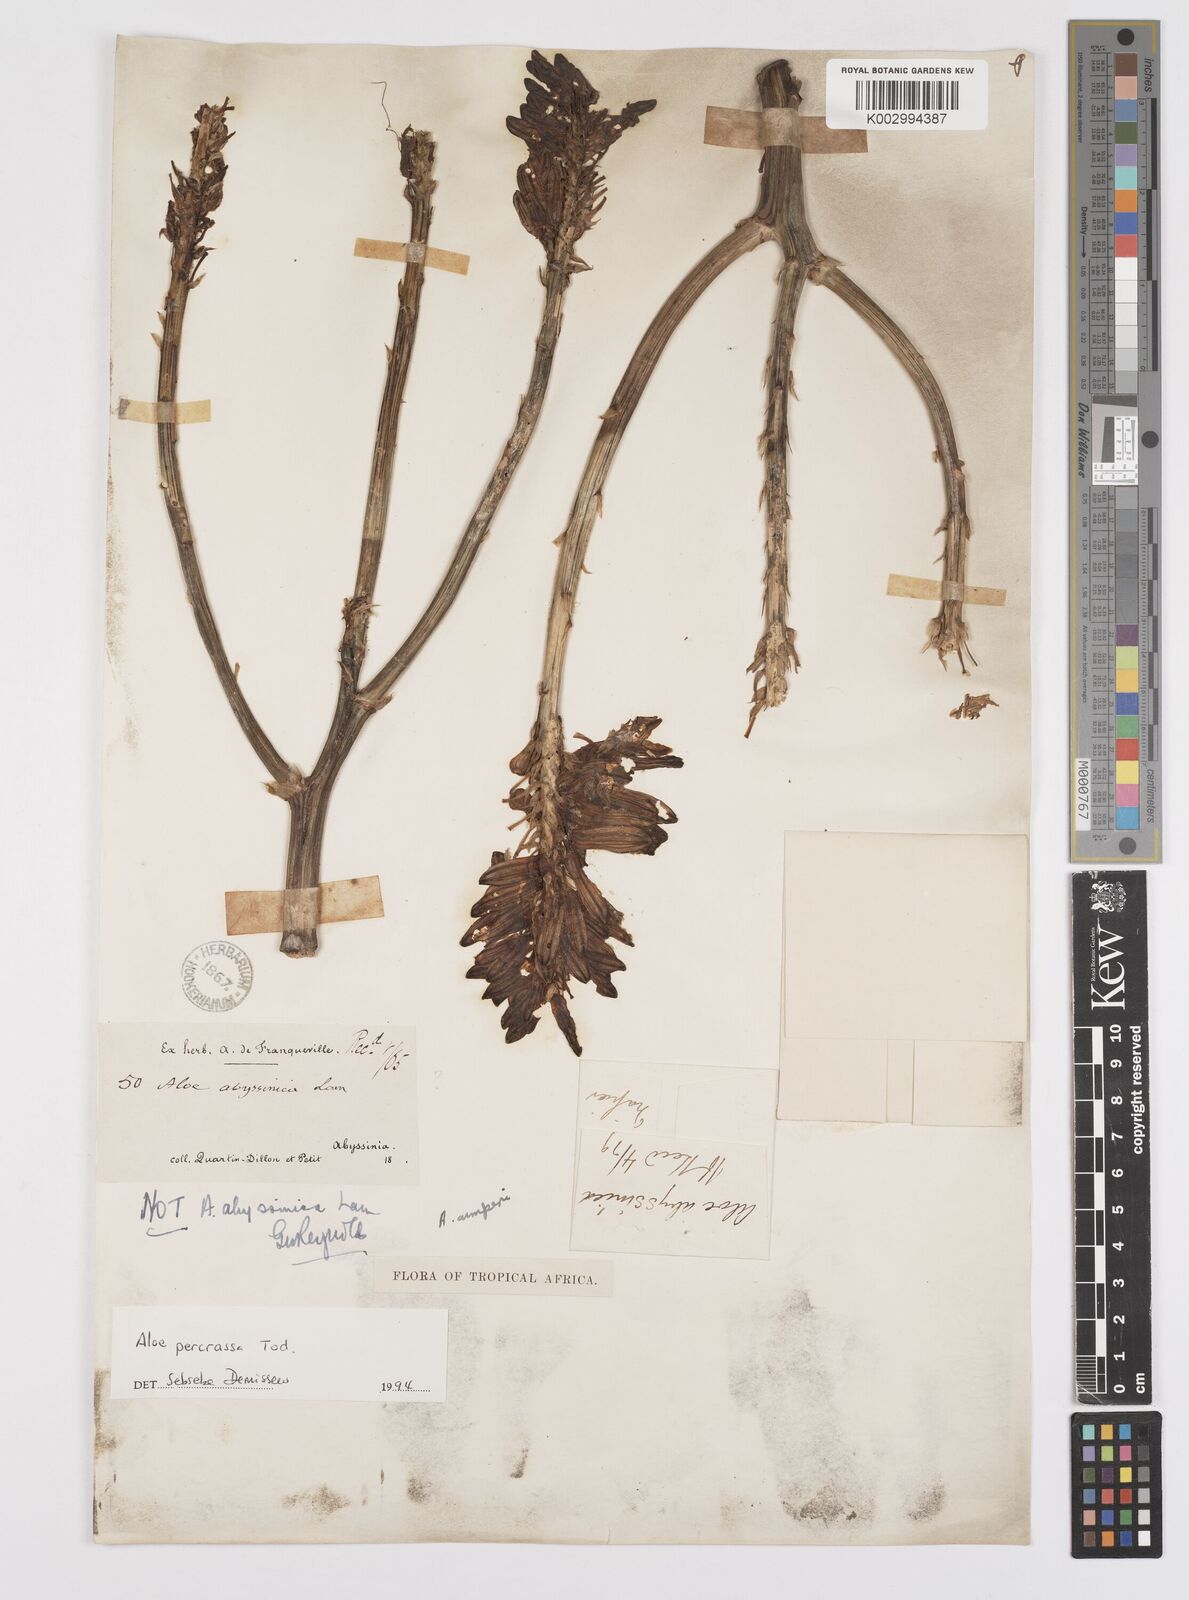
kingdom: Plantae
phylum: Tracheophyta
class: Liliopsida
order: Asparagales
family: Asphodelaceae
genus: Aloe
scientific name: Aloe
